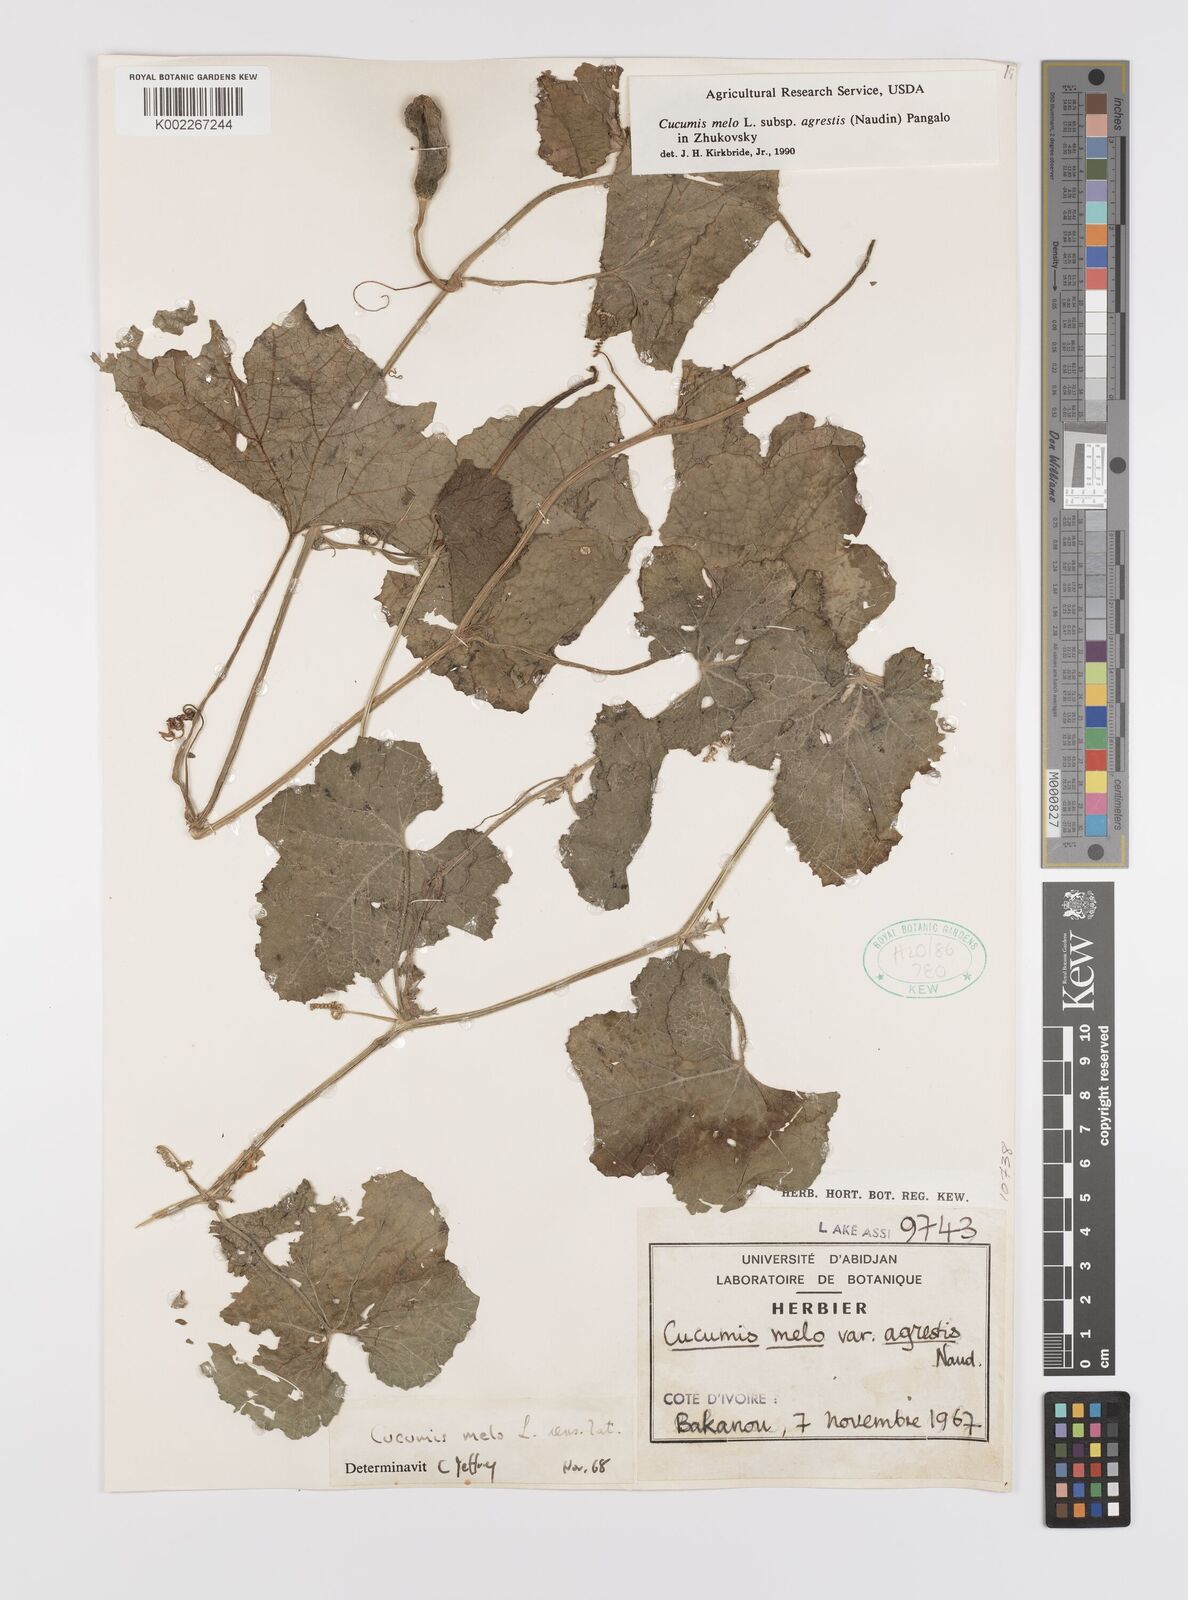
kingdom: Plantae
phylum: Tracheophyta
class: Magnoliopsida
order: Cucurbitales
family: Cucurbitaceae
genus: Cucumis
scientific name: Cucumis melo
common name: Melon
